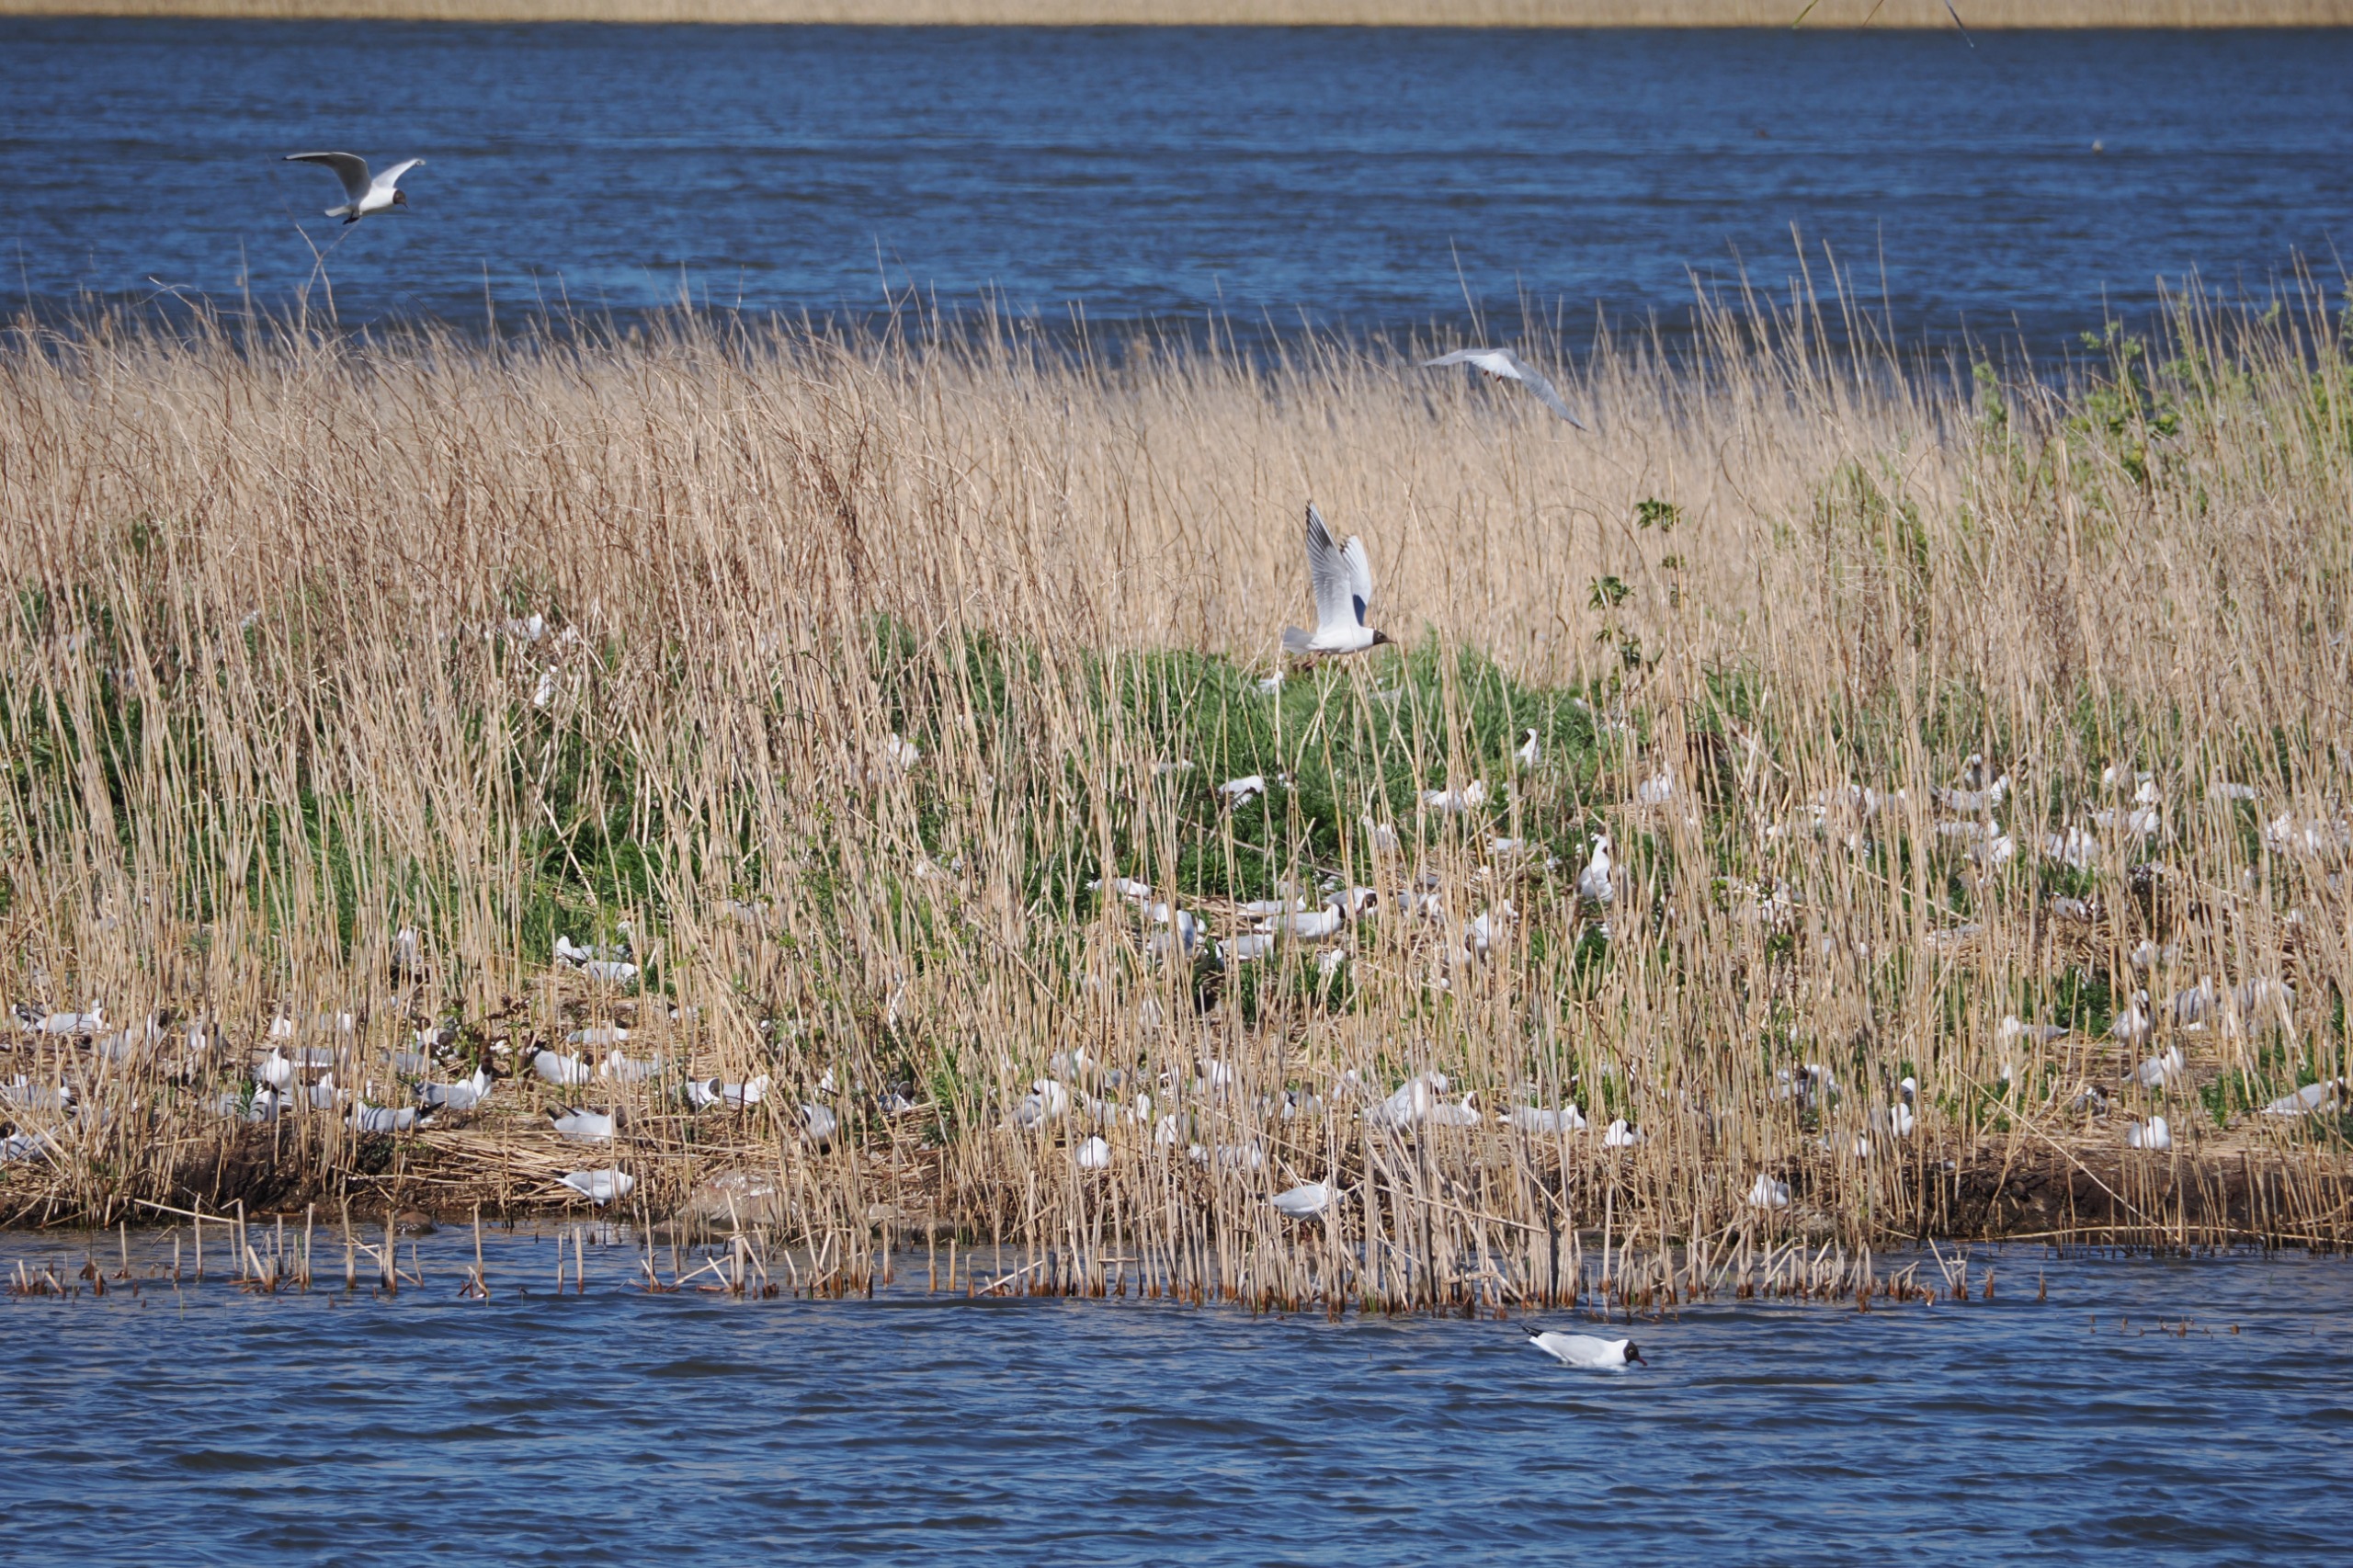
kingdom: Animalia
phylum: Chordata
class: Aves
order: Charadriiformes
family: Laridae
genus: Chroicocephalus
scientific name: Chroicocephalus ridibundus
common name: Hættemåge
